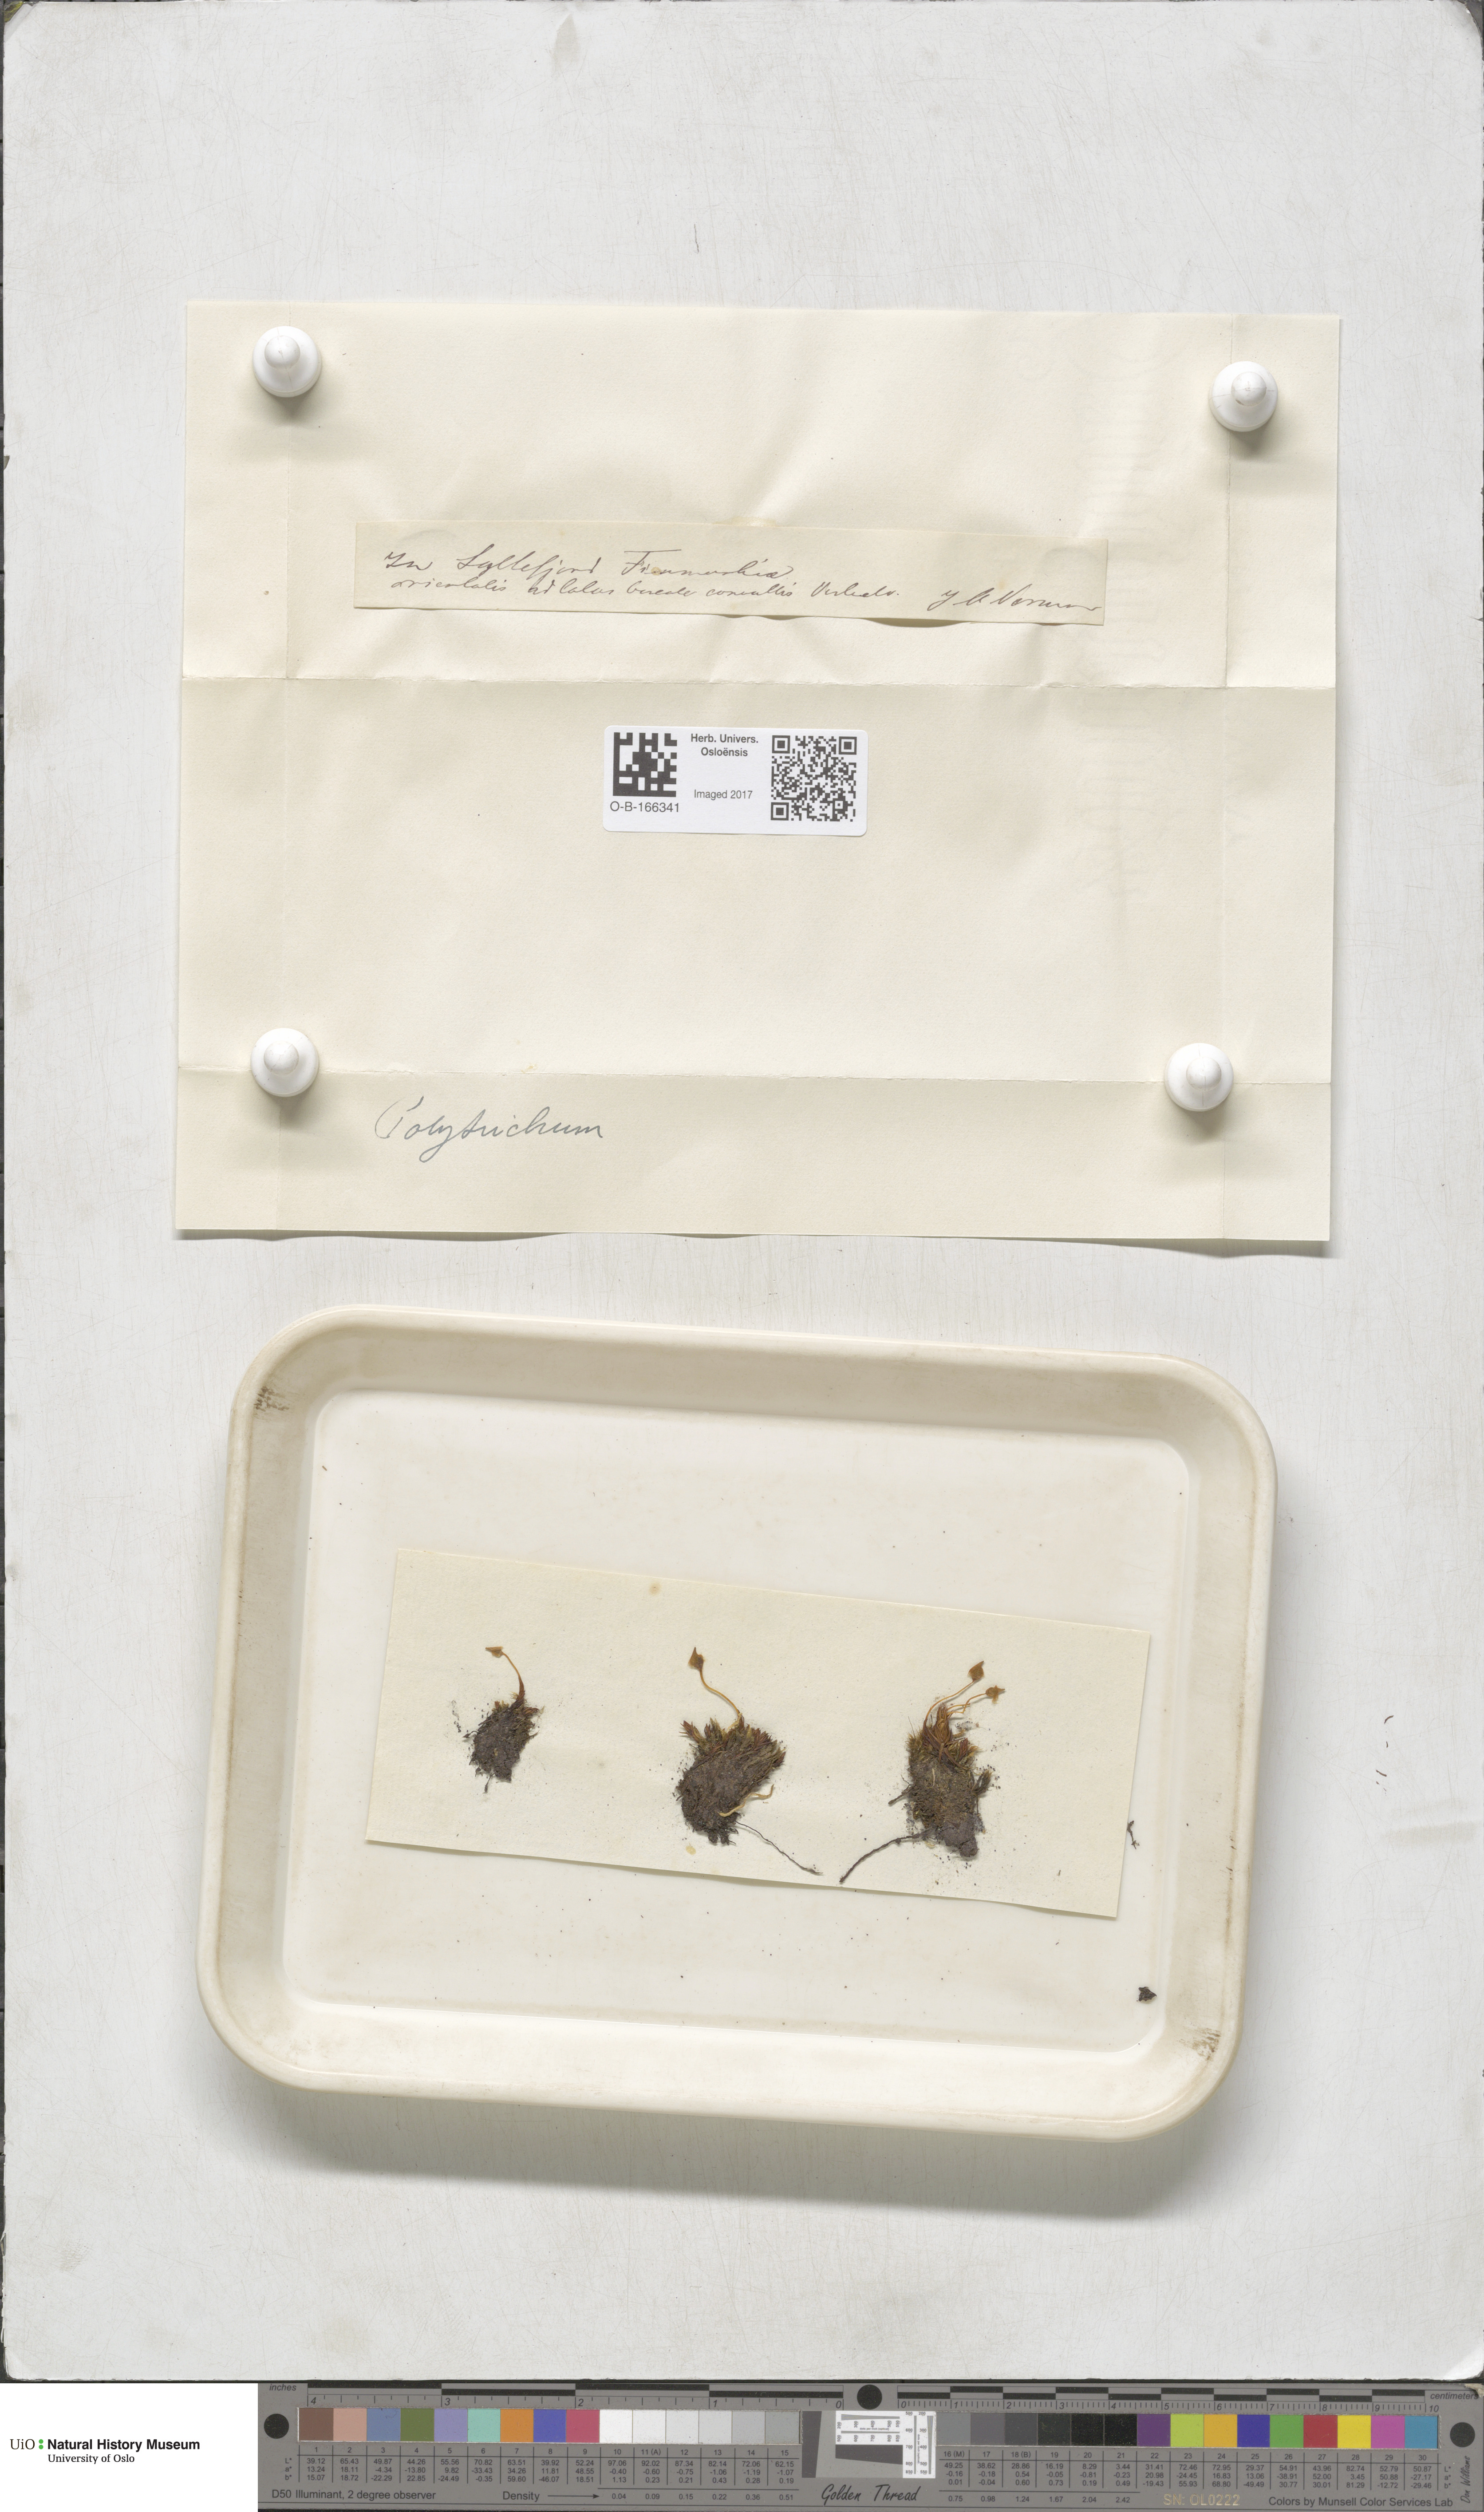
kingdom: Plantae
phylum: Bryophyta
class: Polytrichopsida
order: Polytrichales
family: Polytrichaceae
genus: Polytrichum
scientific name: Polytrichum
